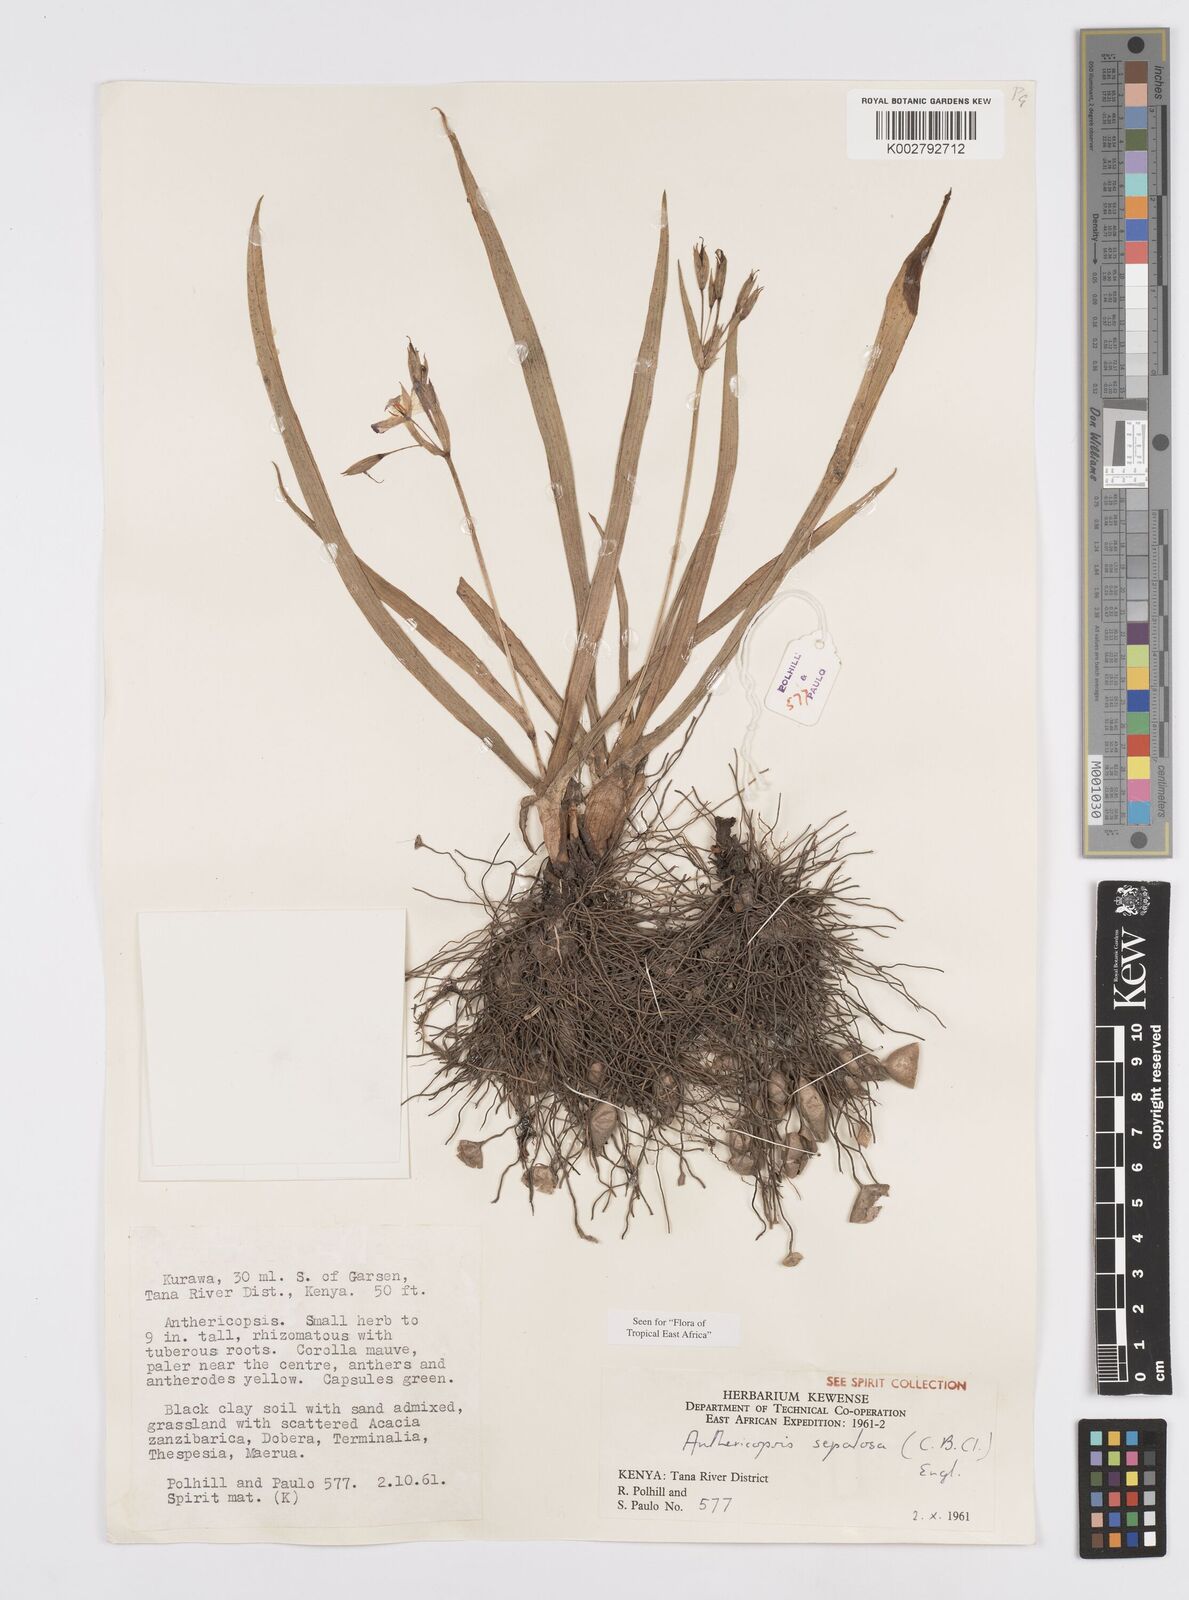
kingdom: Plantae
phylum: Tracheophyta
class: Liliopsida
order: Commelinales
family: Commelinaceae
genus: Anthericopsis
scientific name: Anthericopsis sepalosa
